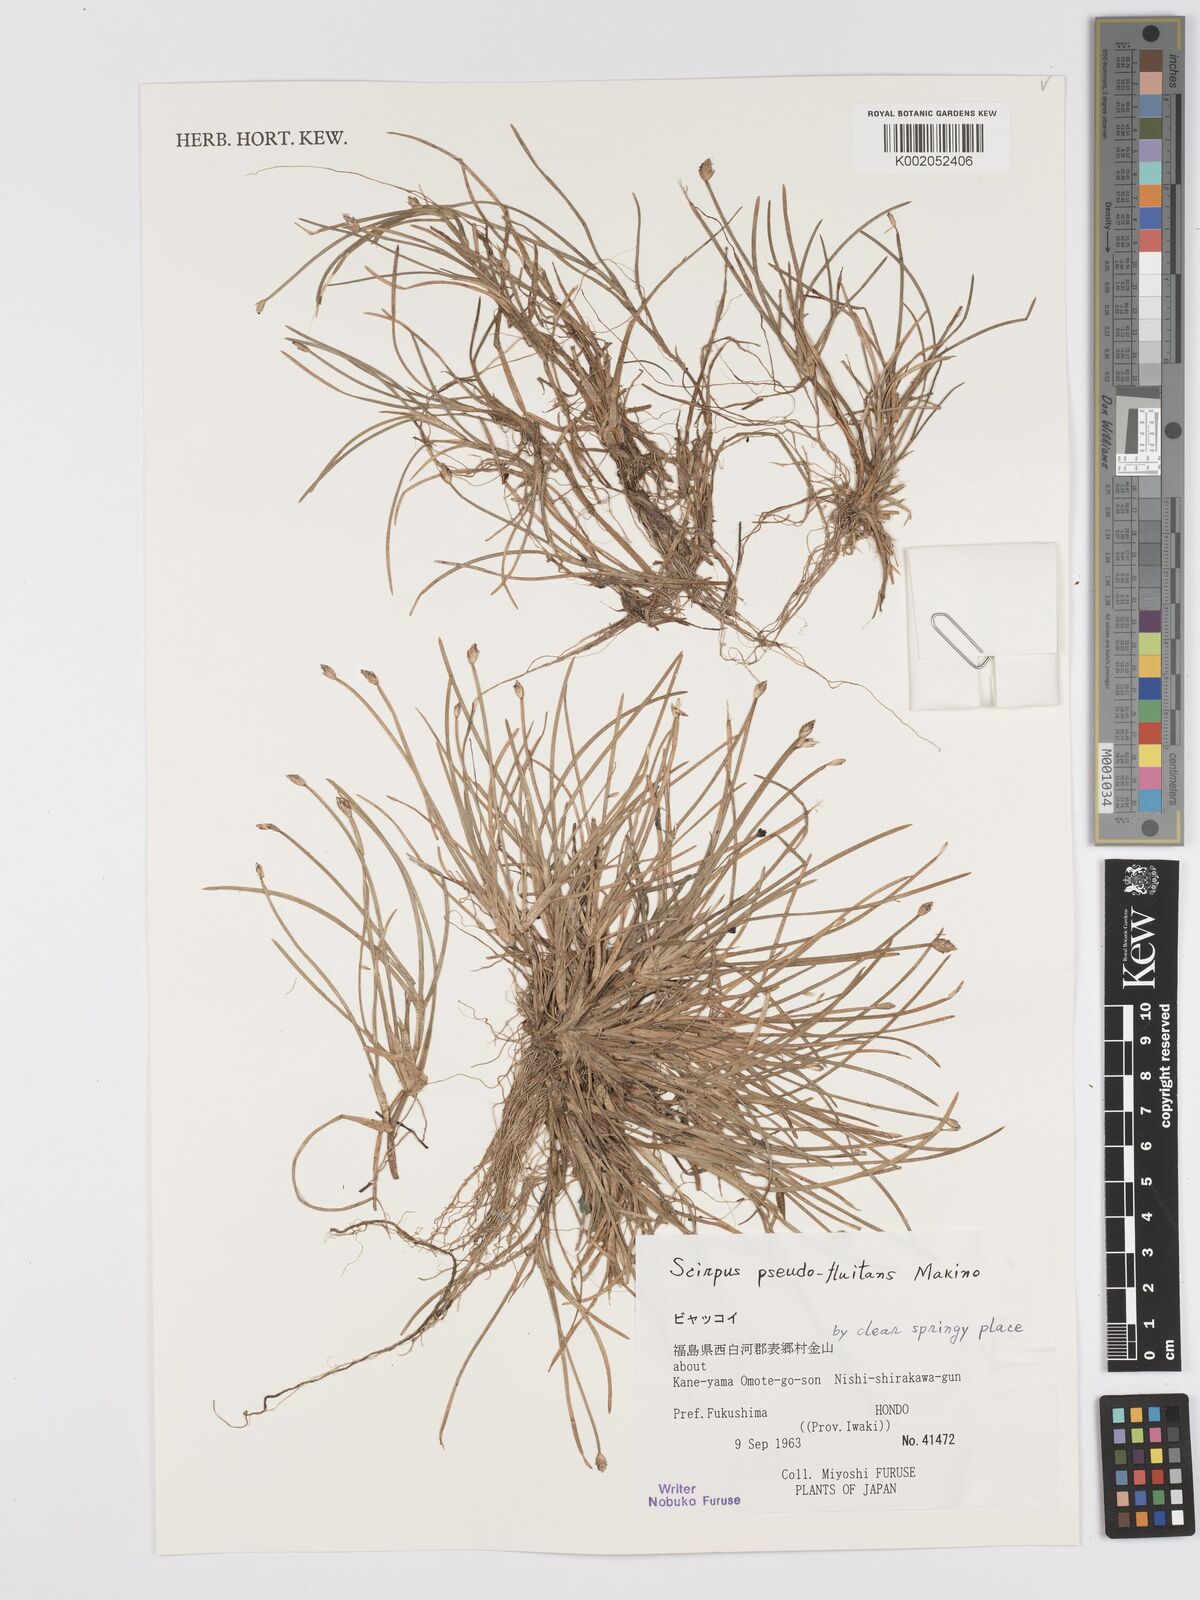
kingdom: Plantae
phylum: Tracheophyta
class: Liliopsida
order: Poales
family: Cyperaceae
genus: Isolepis
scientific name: Isolepis crassiuscula
